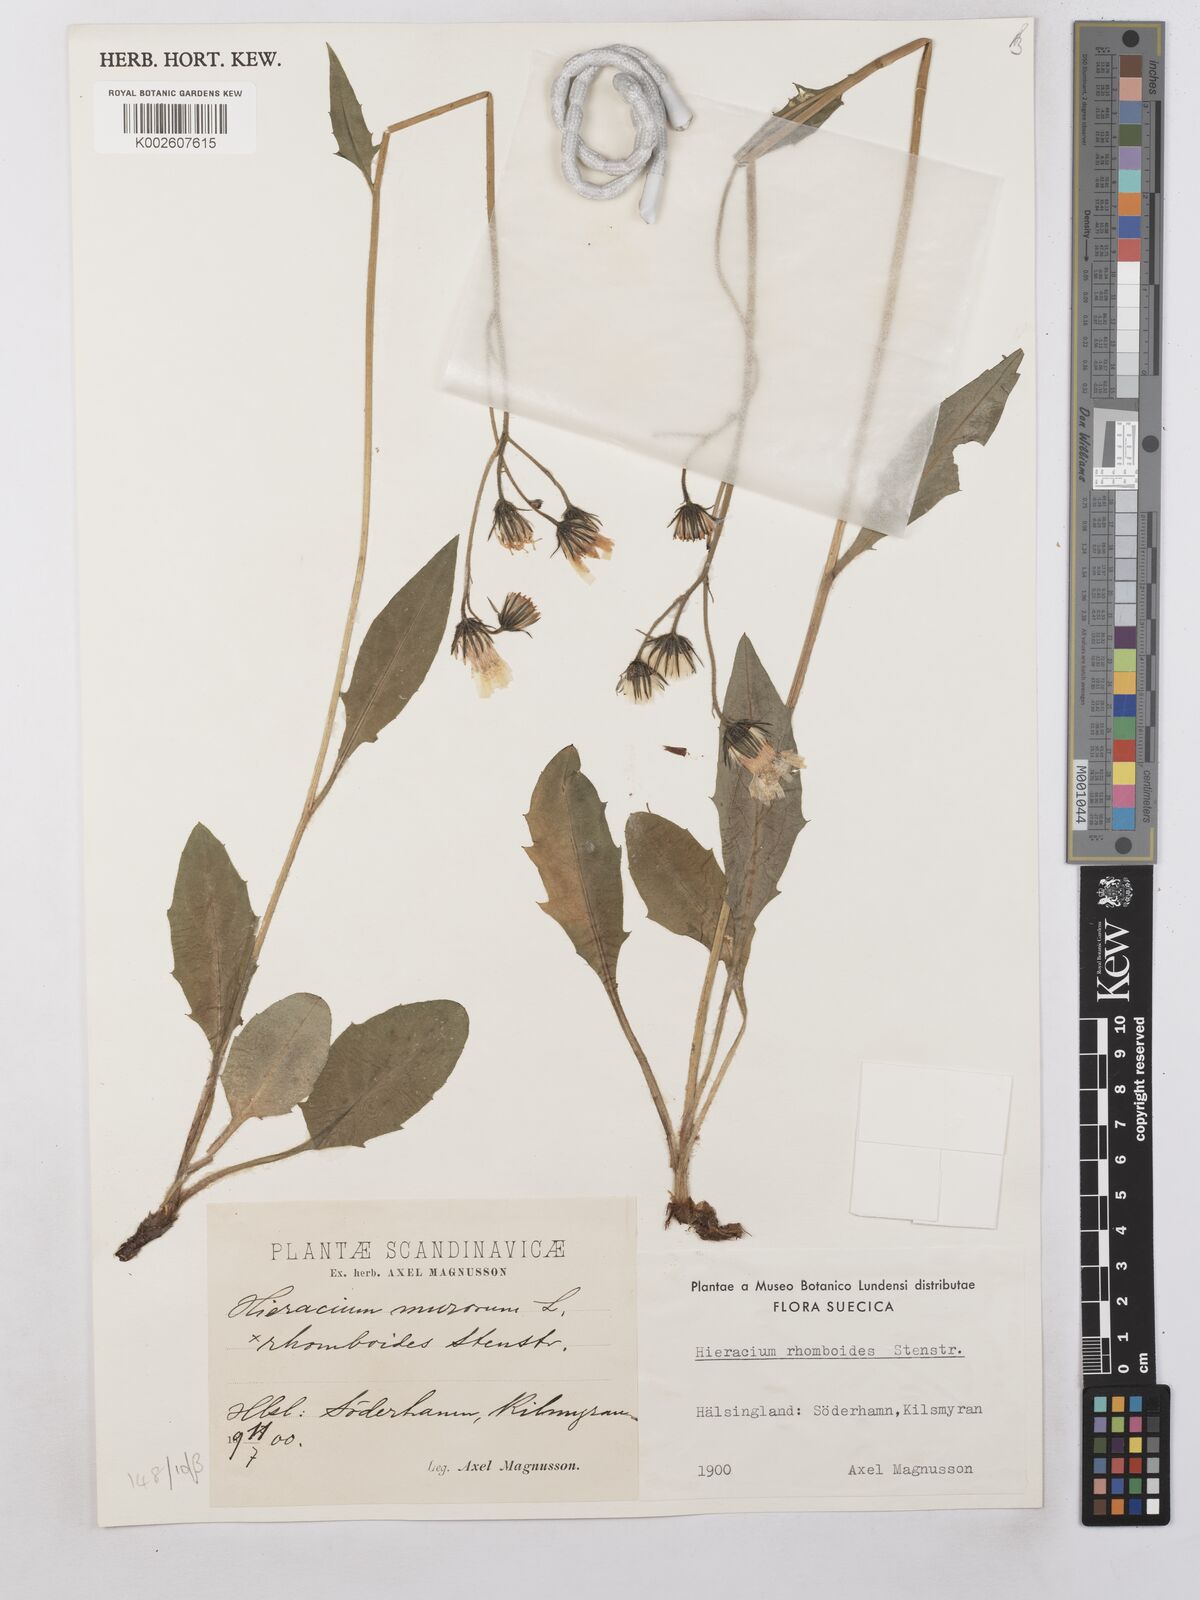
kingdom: Plantae
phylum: Tracheophyta
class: Magnoliopsida
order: Asterales
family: Asteraceae
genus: Hieracium
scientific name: Hieracium subramosum
